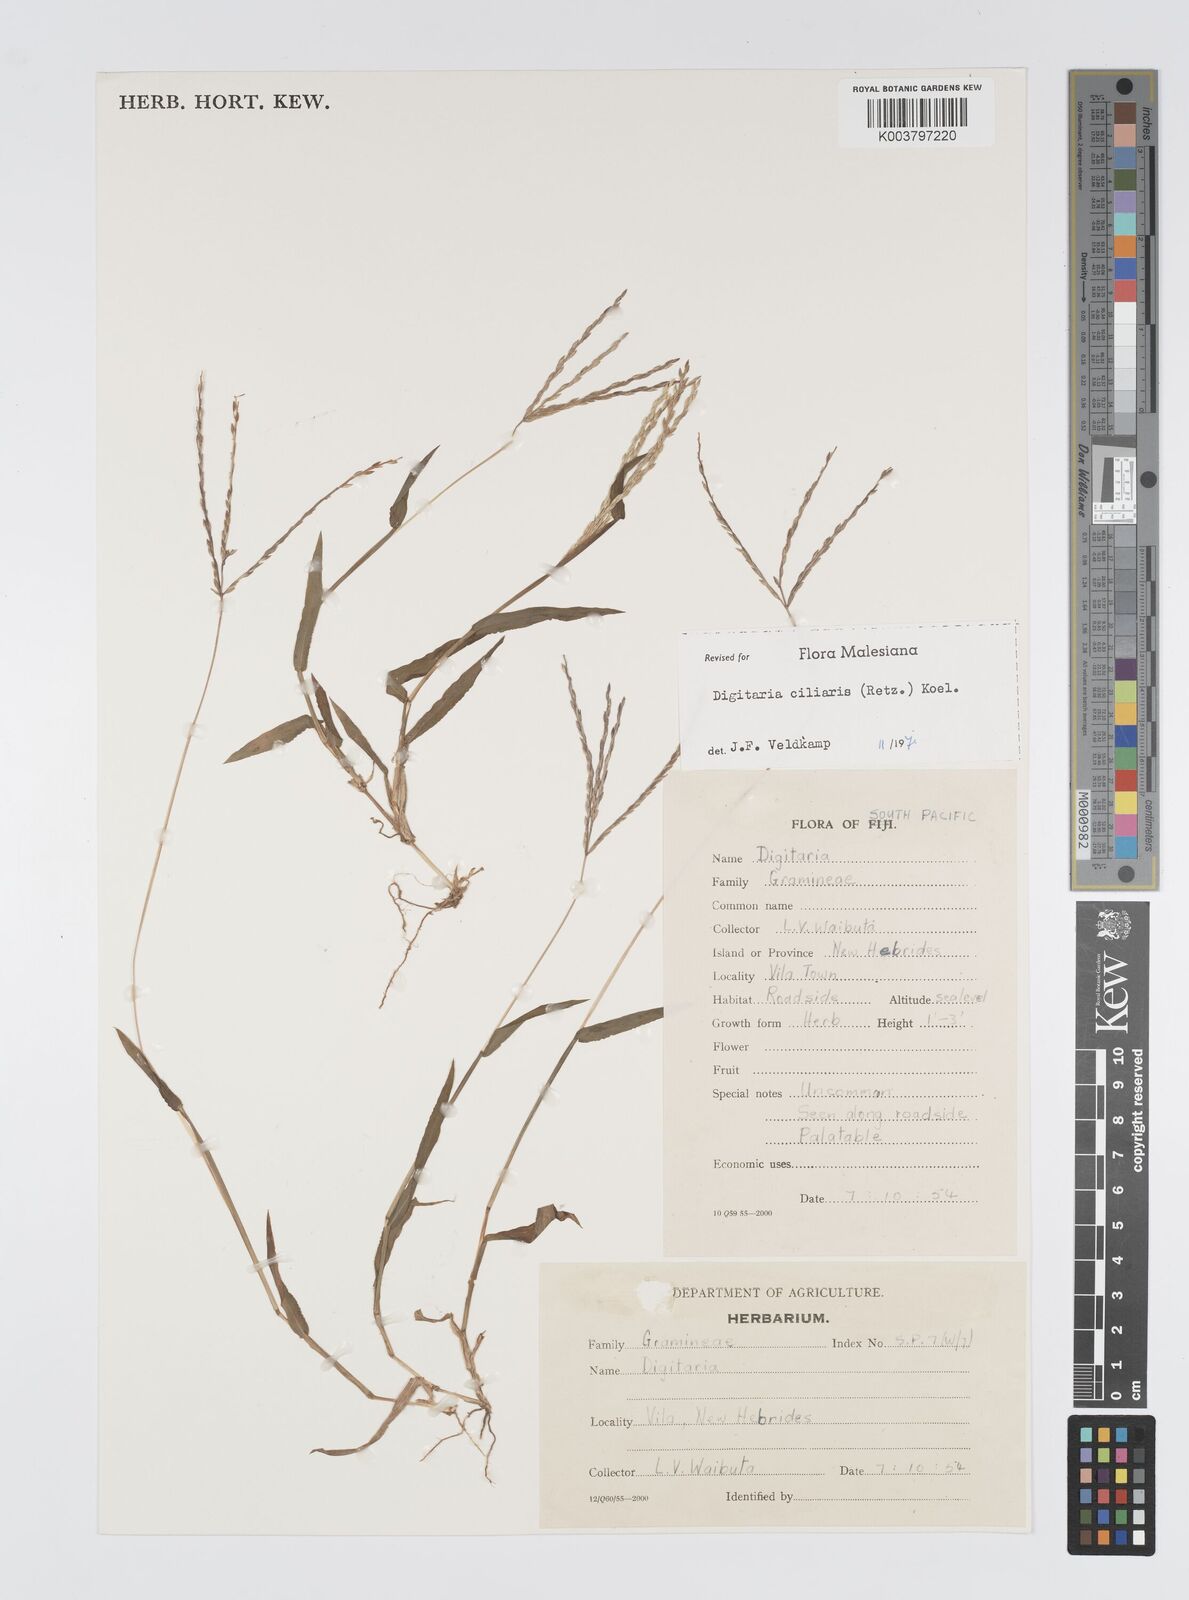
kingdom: Plantae
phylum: Tracheophyta
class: Liliopsida
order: Poales
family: Poaceae
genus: Digitaria
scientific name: Digitaria ciliaris
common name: Tropical finger-grass
